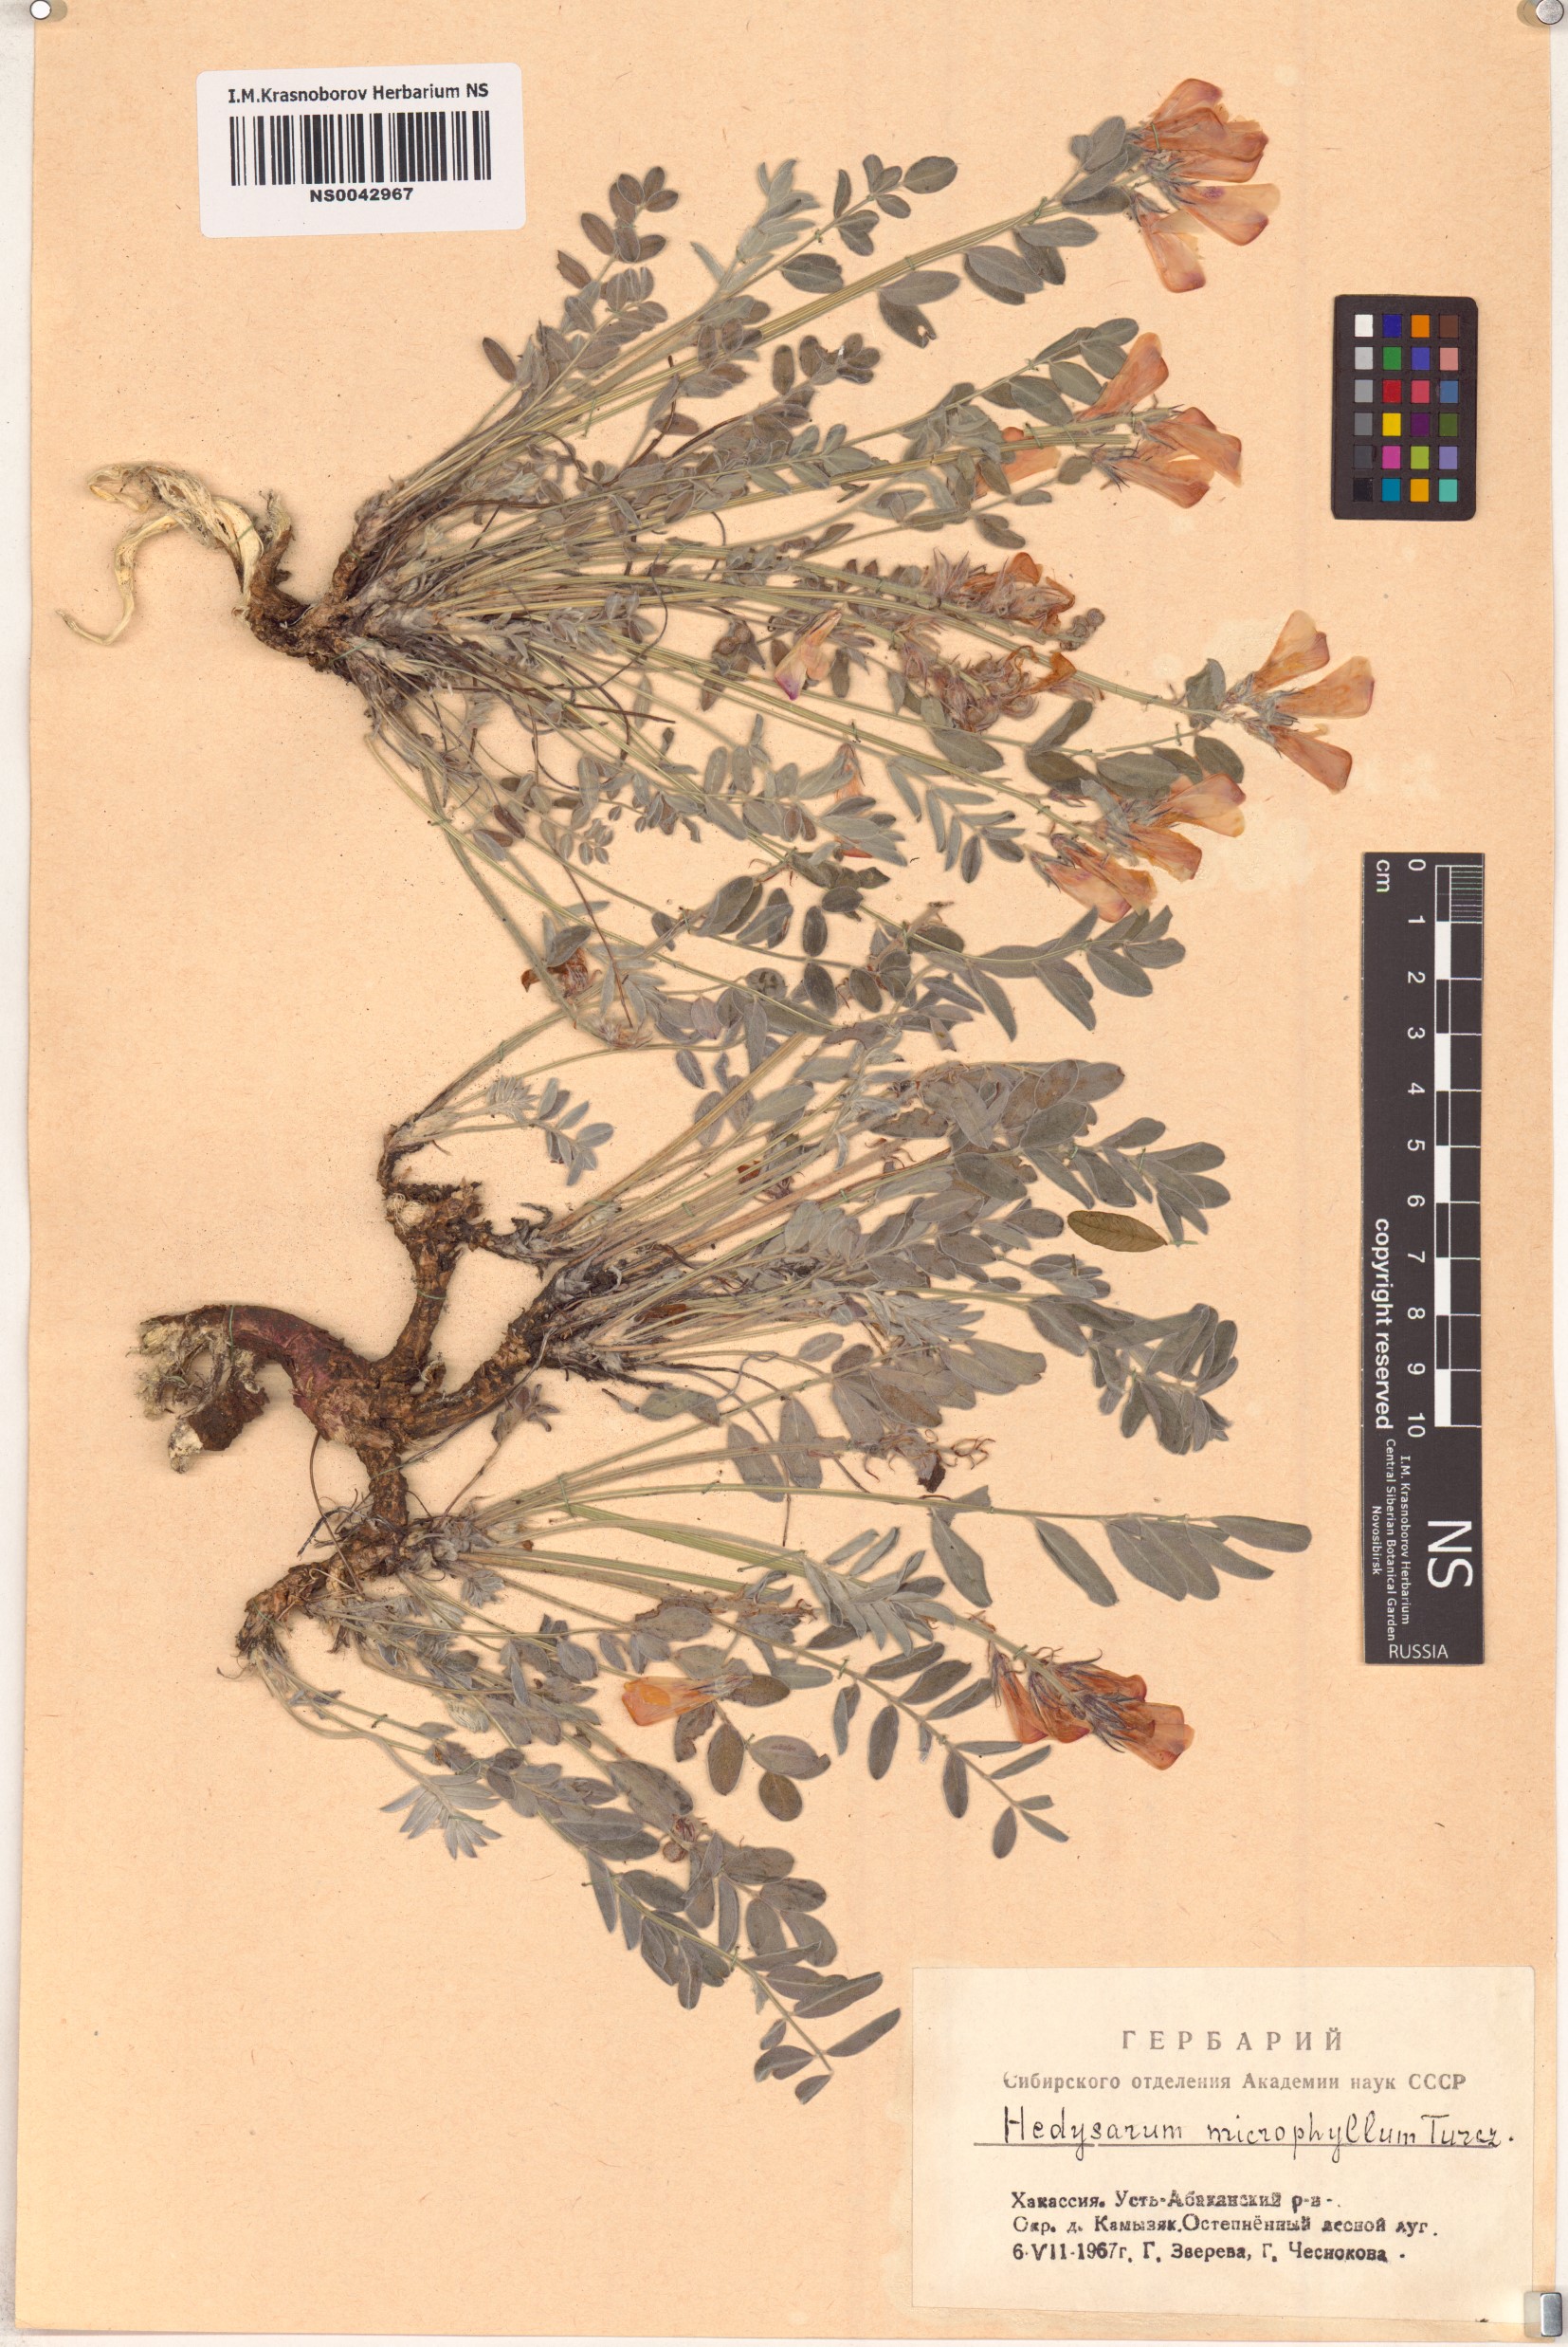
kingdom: Plantae
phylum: Tracheophyta
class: Magnoliopsida
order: Fabales
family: Fabaceae
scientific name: Fabaceae
